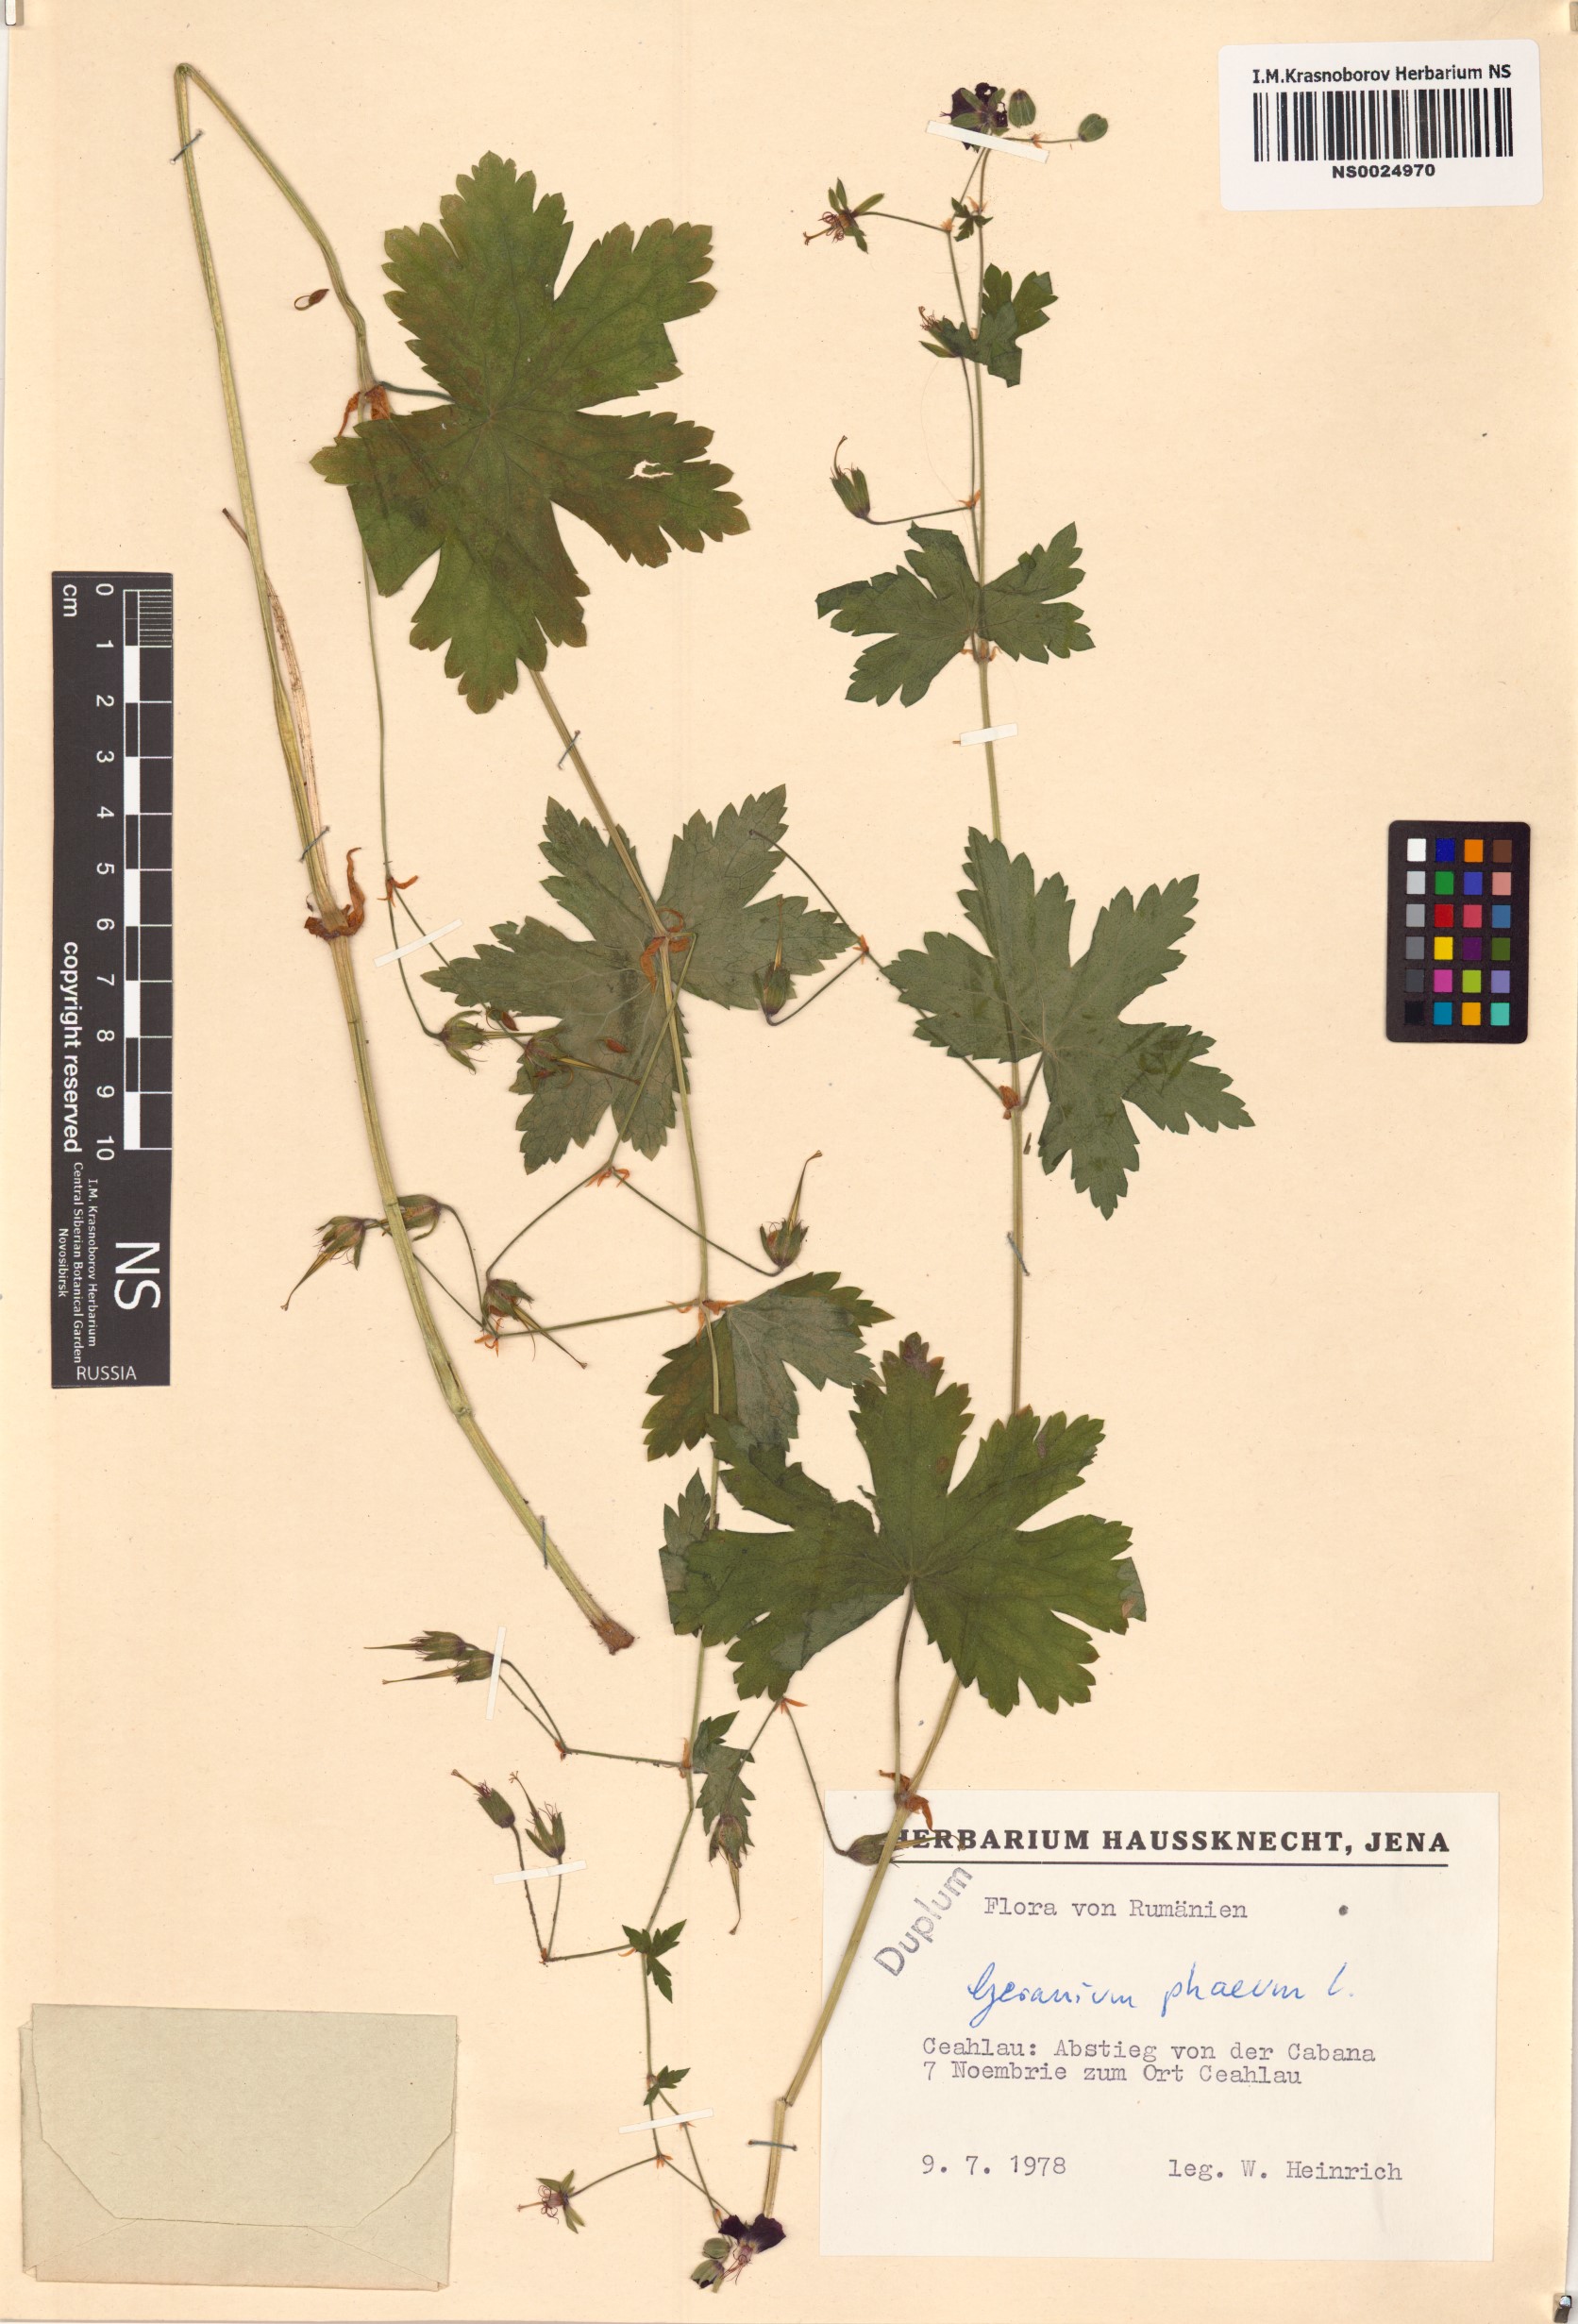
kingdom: Plantae
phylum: Tracheophyta
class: Magnoliopsida
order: Geraniales
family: Geraniaceae
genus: Geranium
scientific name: Geranium phaeum
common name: Dusky crane's-bill
